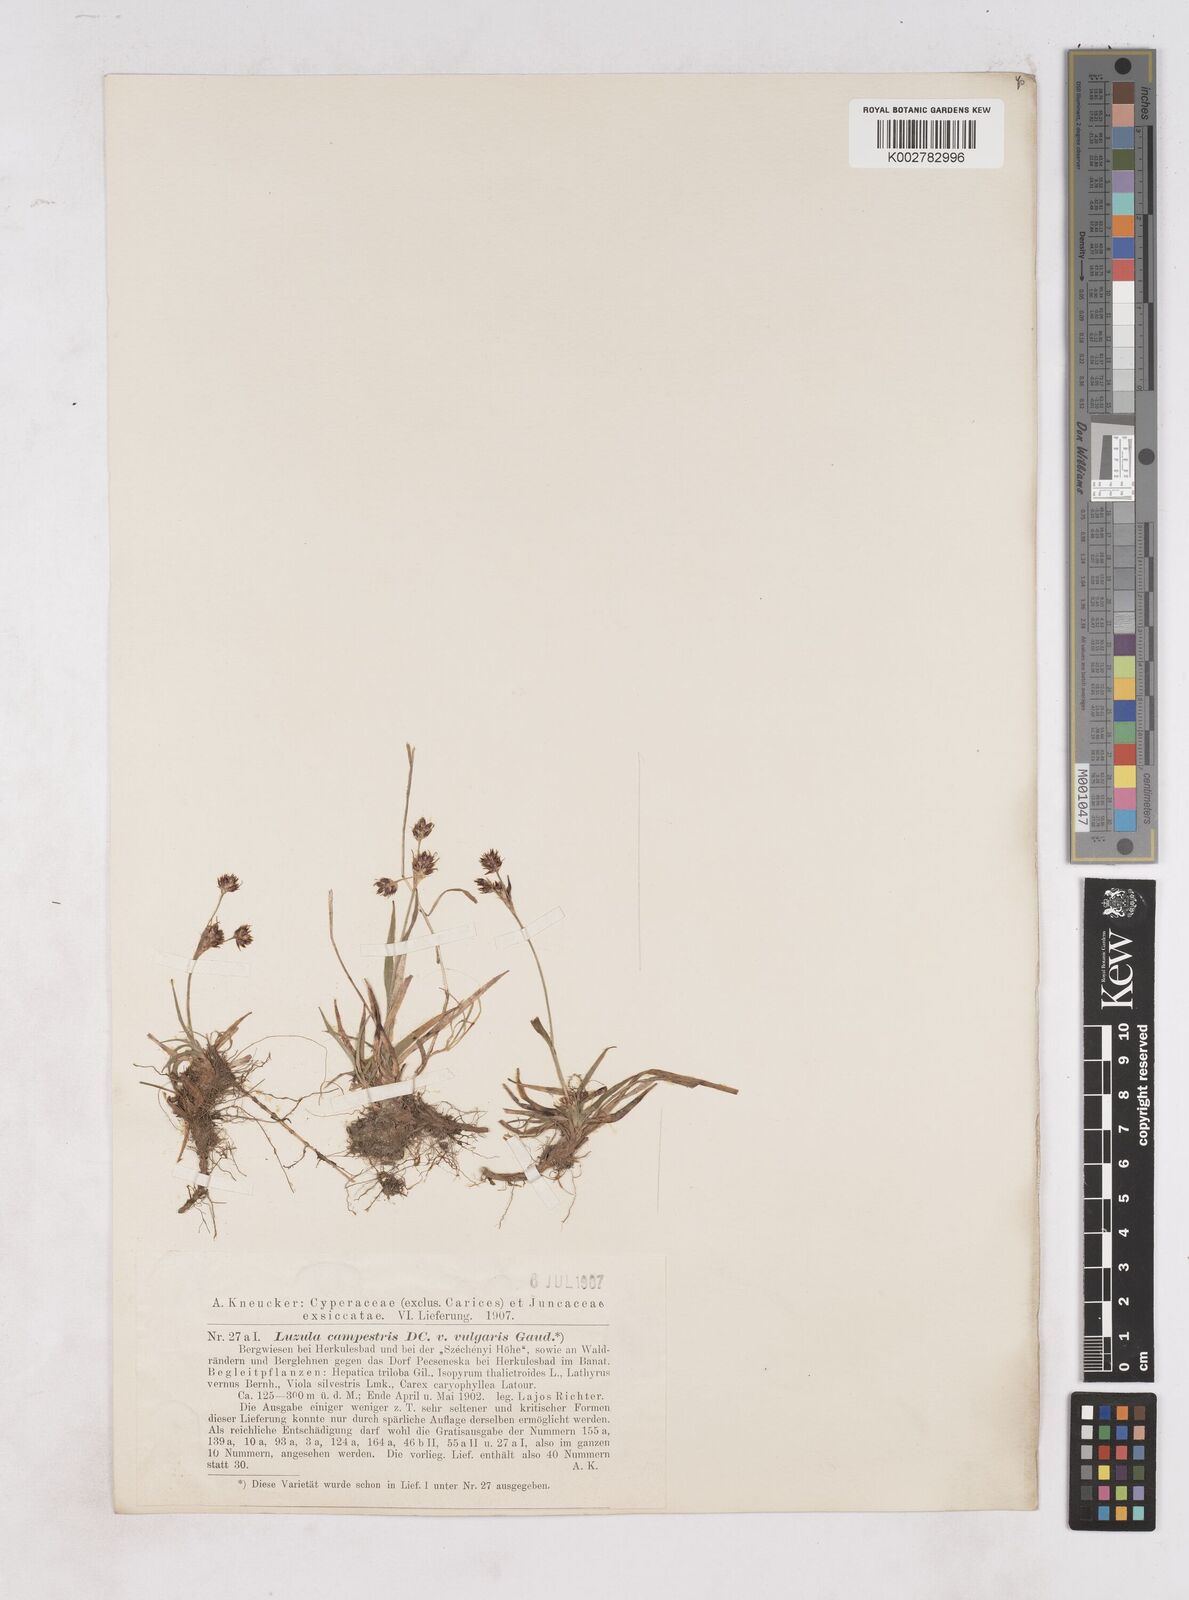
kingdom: Plantae
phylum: Tracheophyta
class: Liliopsida
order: Poales
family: Juncaceae
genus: Luzula
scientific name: Luzula campestris
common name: Field wood-rush
